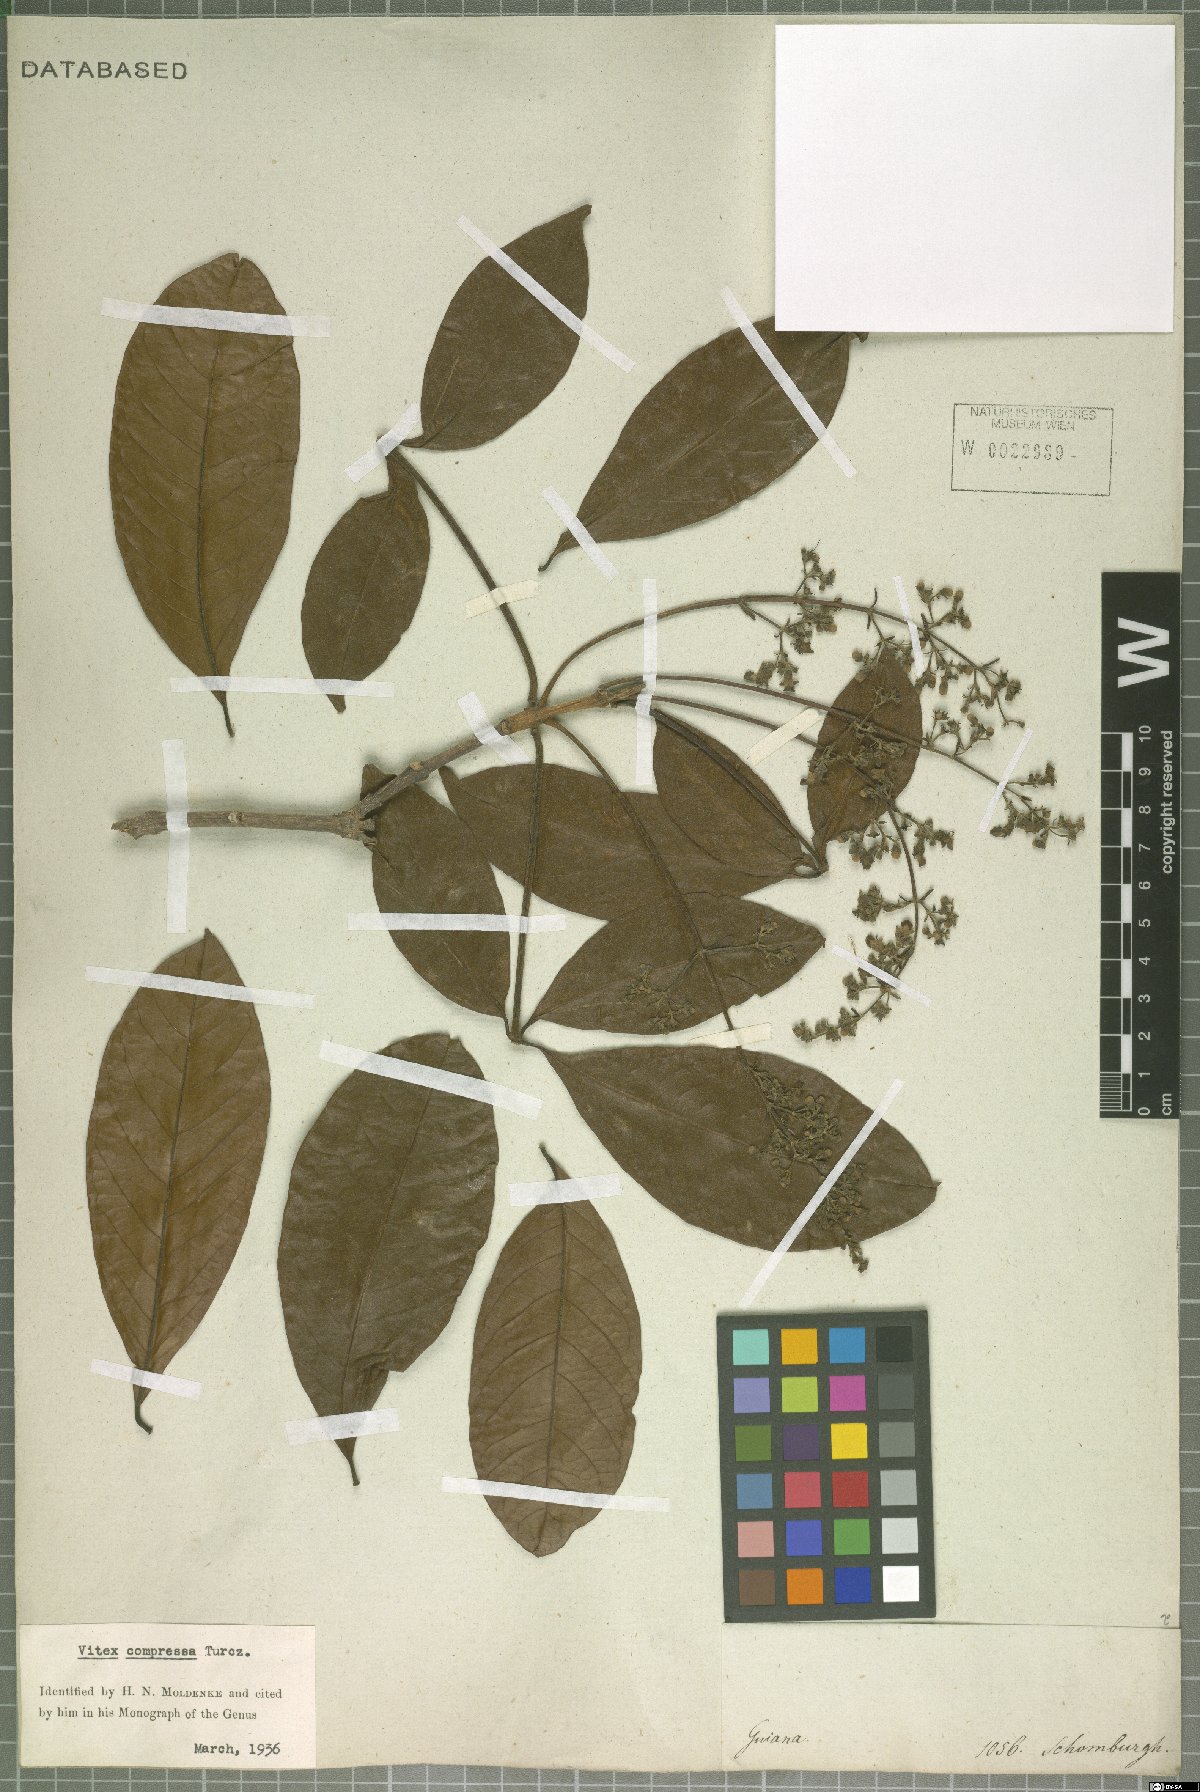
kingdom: Plantae
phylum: Tracheophyta
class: Magnoliopsida
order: Lamiales
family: Lamiaceae
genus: Vitex
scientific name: Vitex compressa
